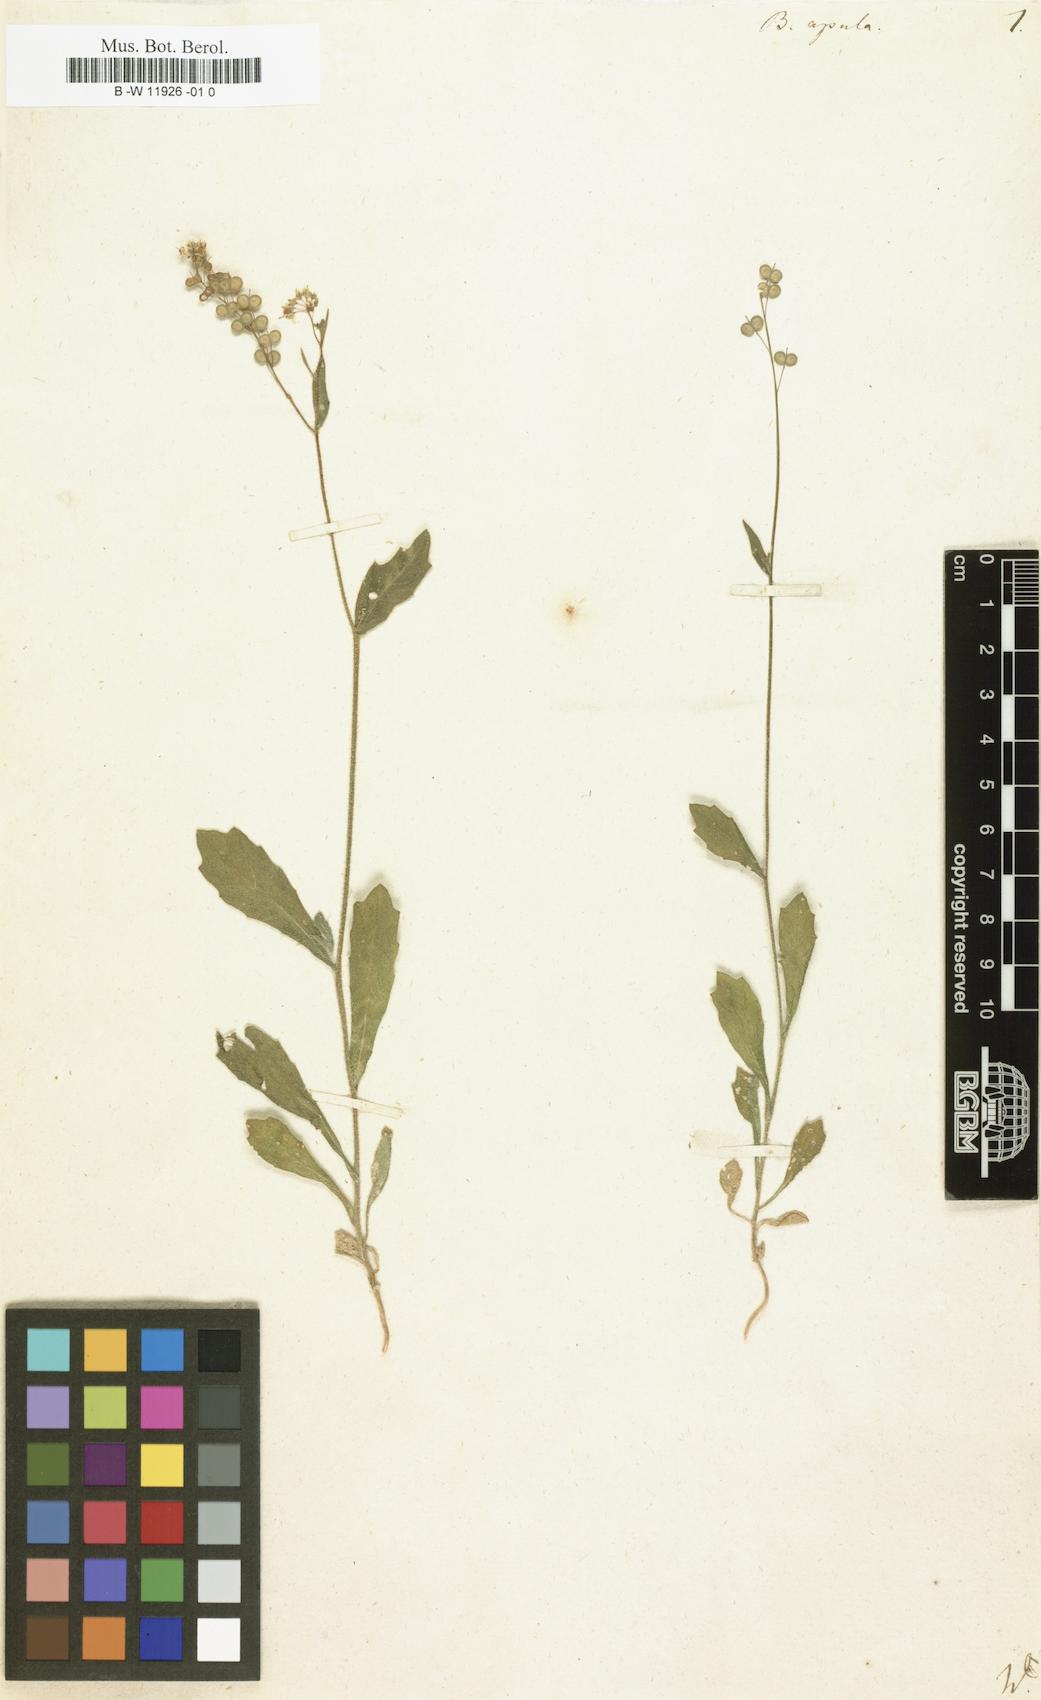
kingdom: Plantae
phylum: Tracheophyta
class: Magnoliopsida
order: Brassicales
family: Brassicaceae
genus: Biscutella
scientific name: Biscutella apula
